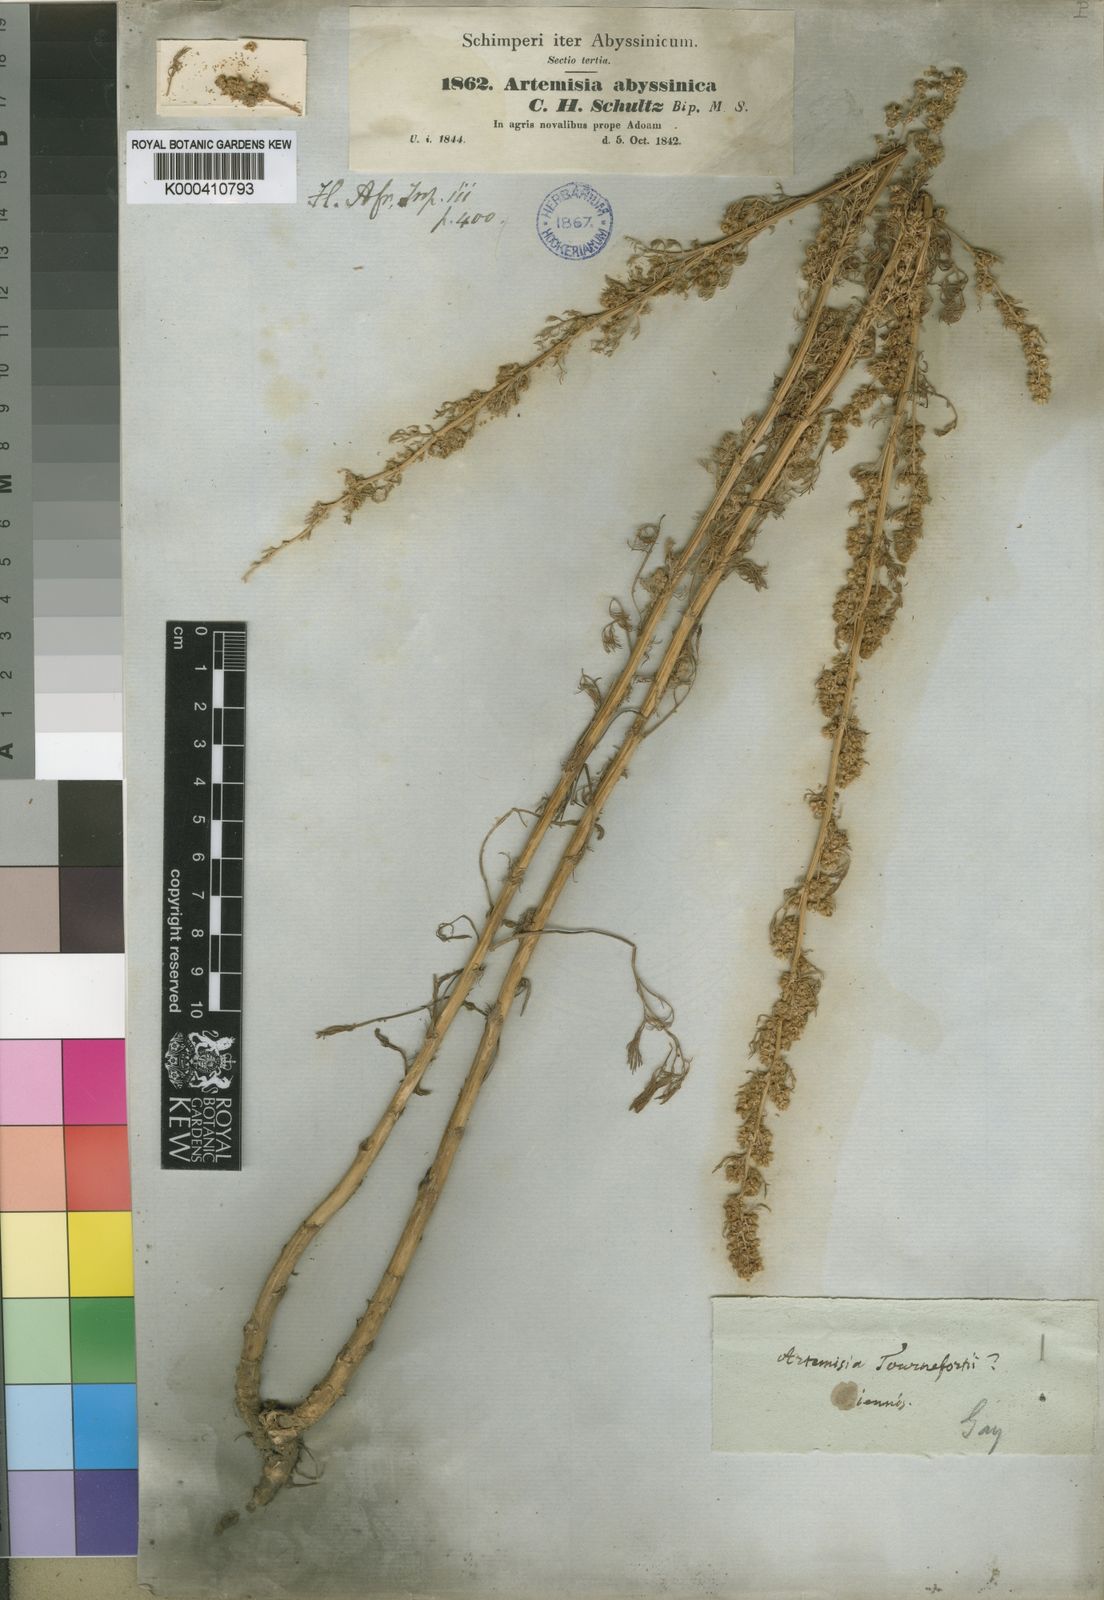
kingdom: Plantae
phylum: Tracheophyta
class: Magnoliopsida
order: Asterales
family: Asteraceae
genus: Artemisia
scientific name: Artemisia abyssinica
